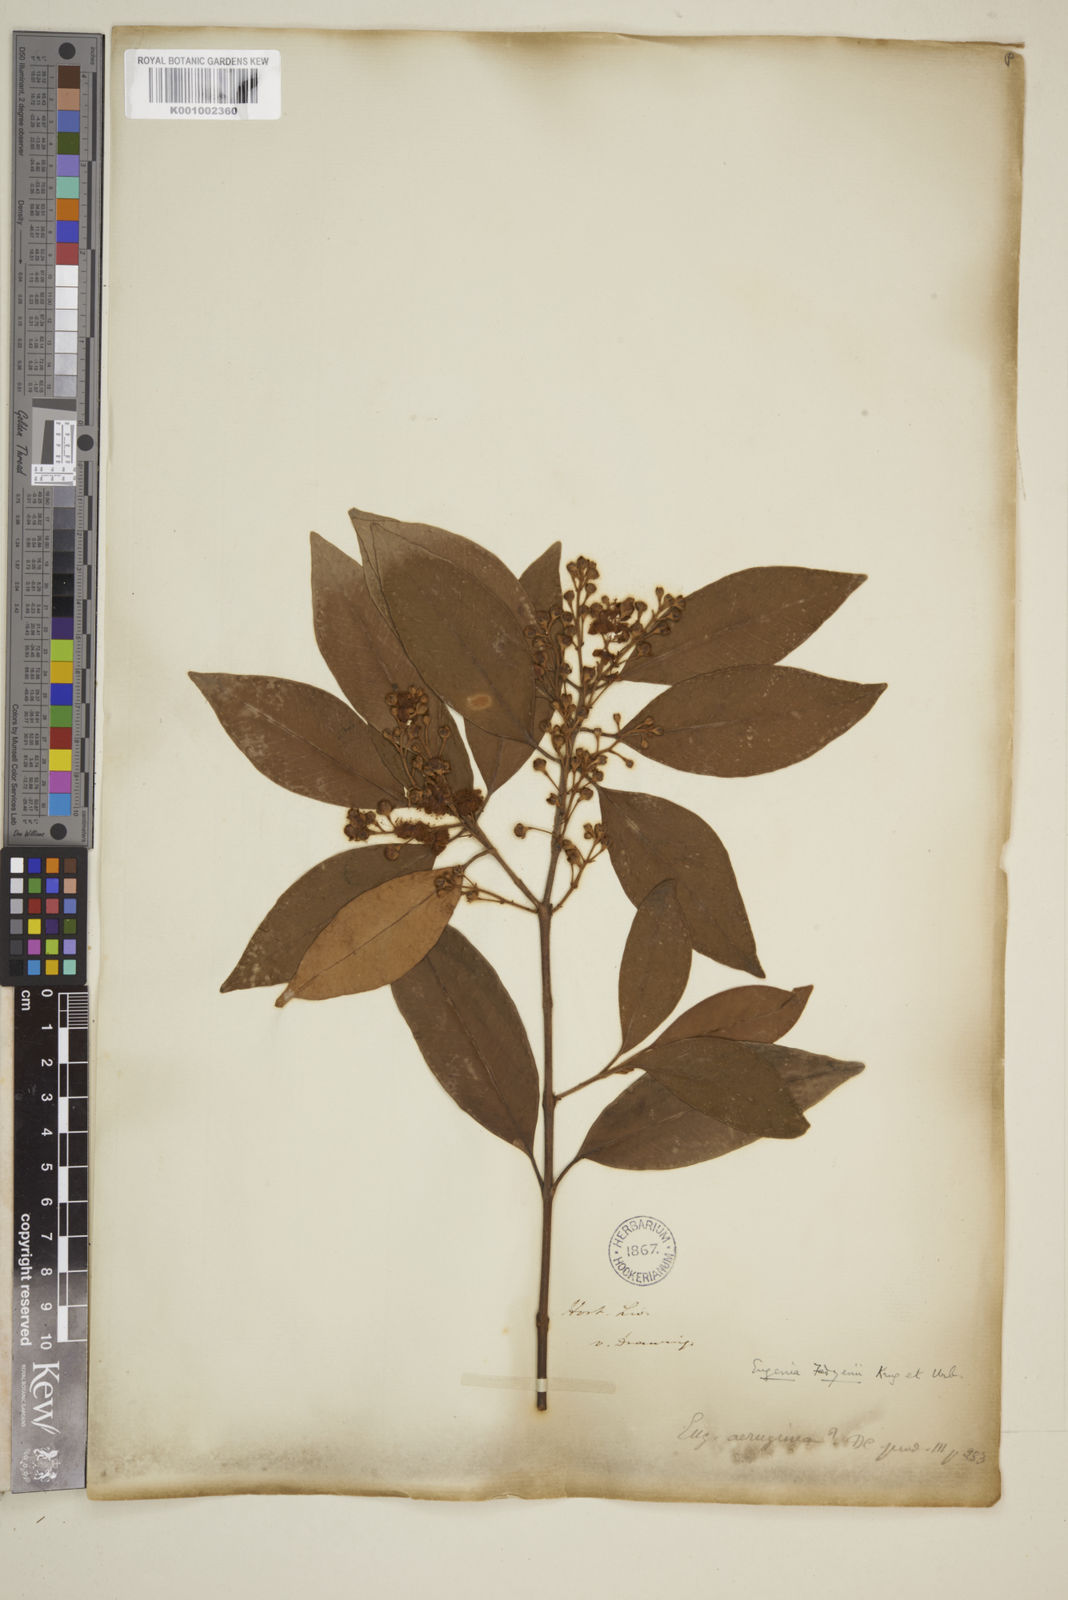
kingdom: Plantae
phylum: Tracheophyta
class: Magnoliopsida
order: Myrtales
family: Myrtaceae
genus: Eugenia
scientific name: Eugenia aeruginea
